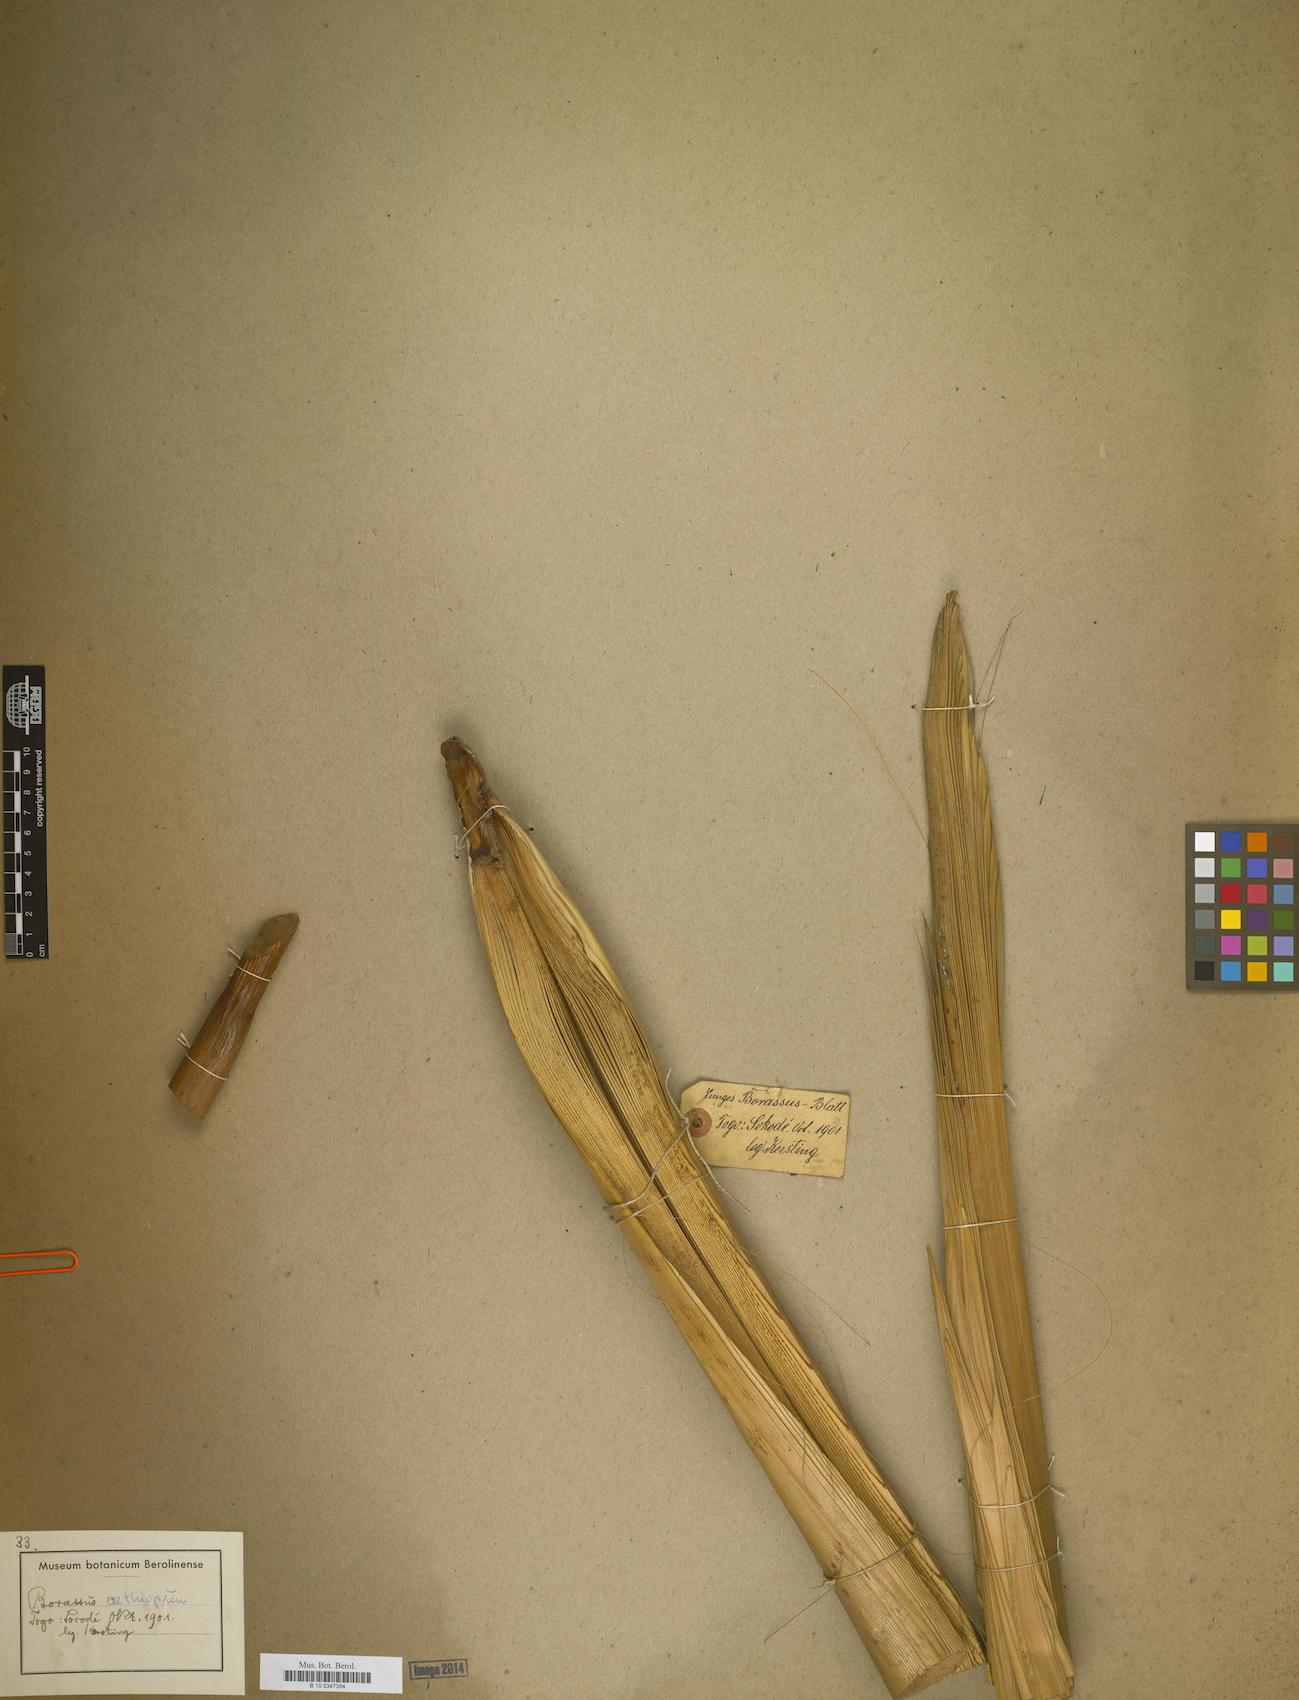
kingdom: Plantae
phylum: Tracheophyta
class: Liliopsida
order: Arecales
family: Arecaceae
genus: Borassus
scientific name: Borassus aethiopicum
